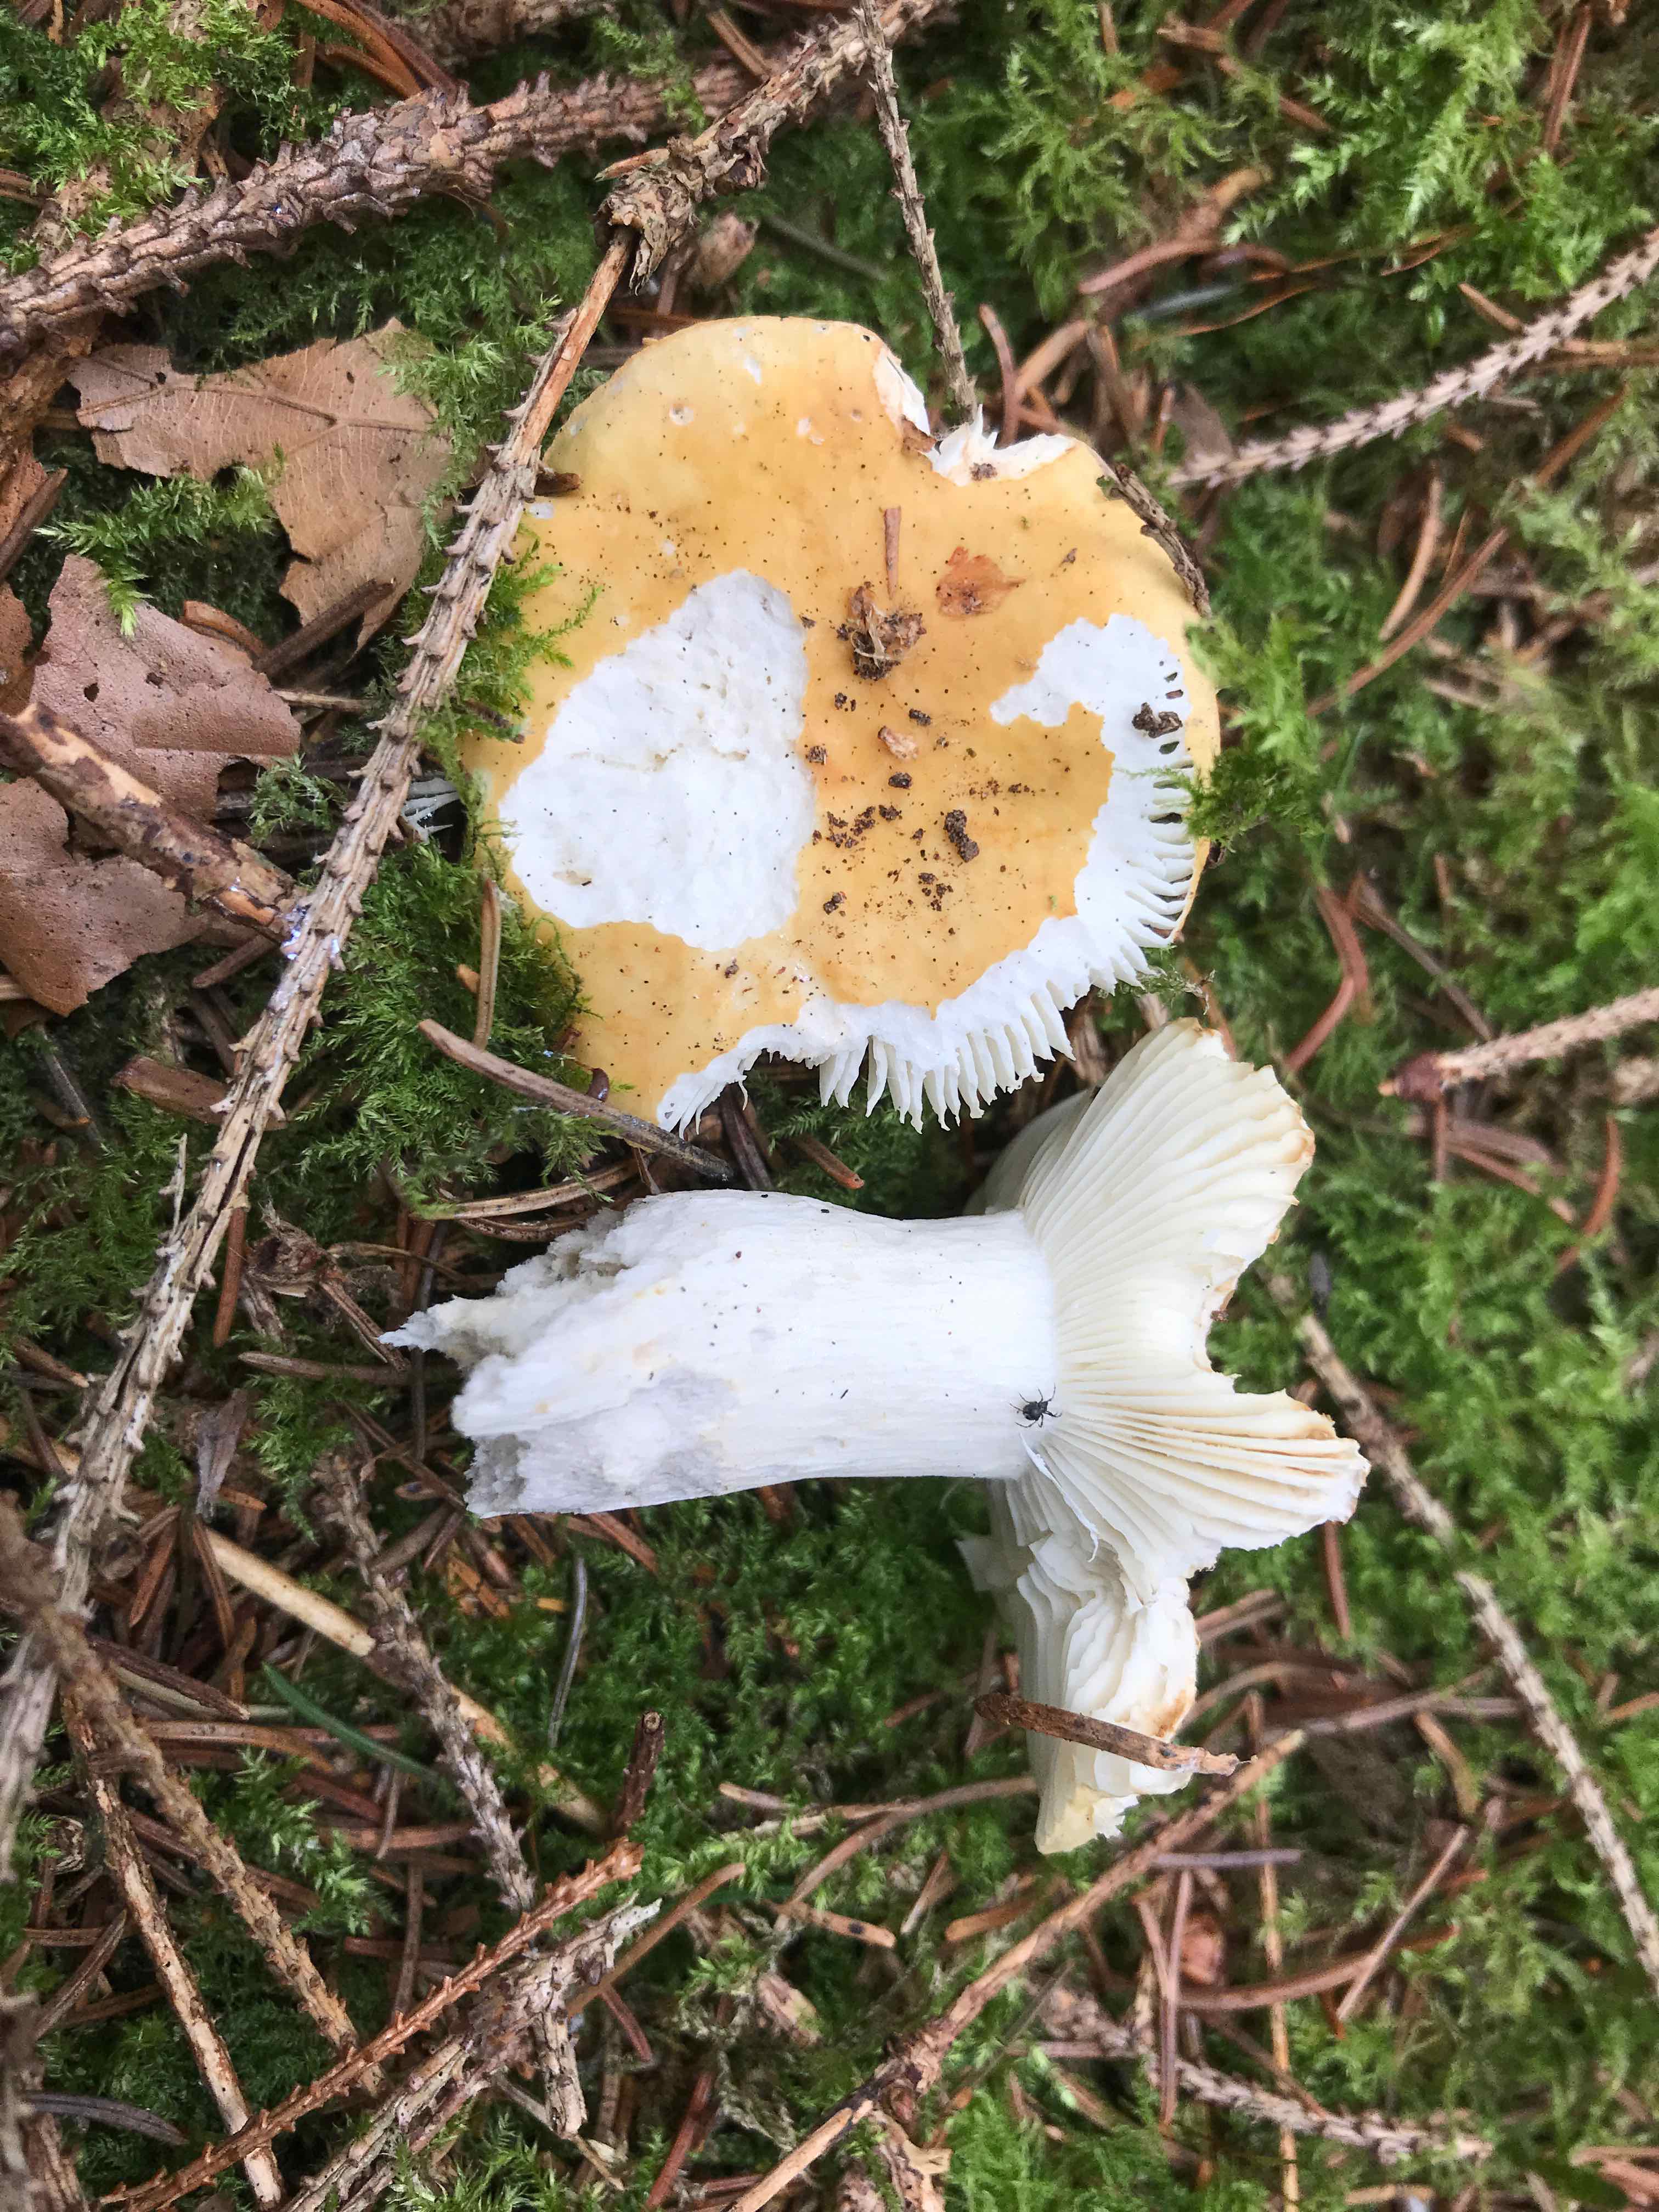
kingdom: Fungi
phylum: Basidiomycota
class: Agaricomycetes
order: Russulales
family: Russulaceae
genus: Russula
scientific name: Russula ochroleuca
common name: okkergul skørhat
